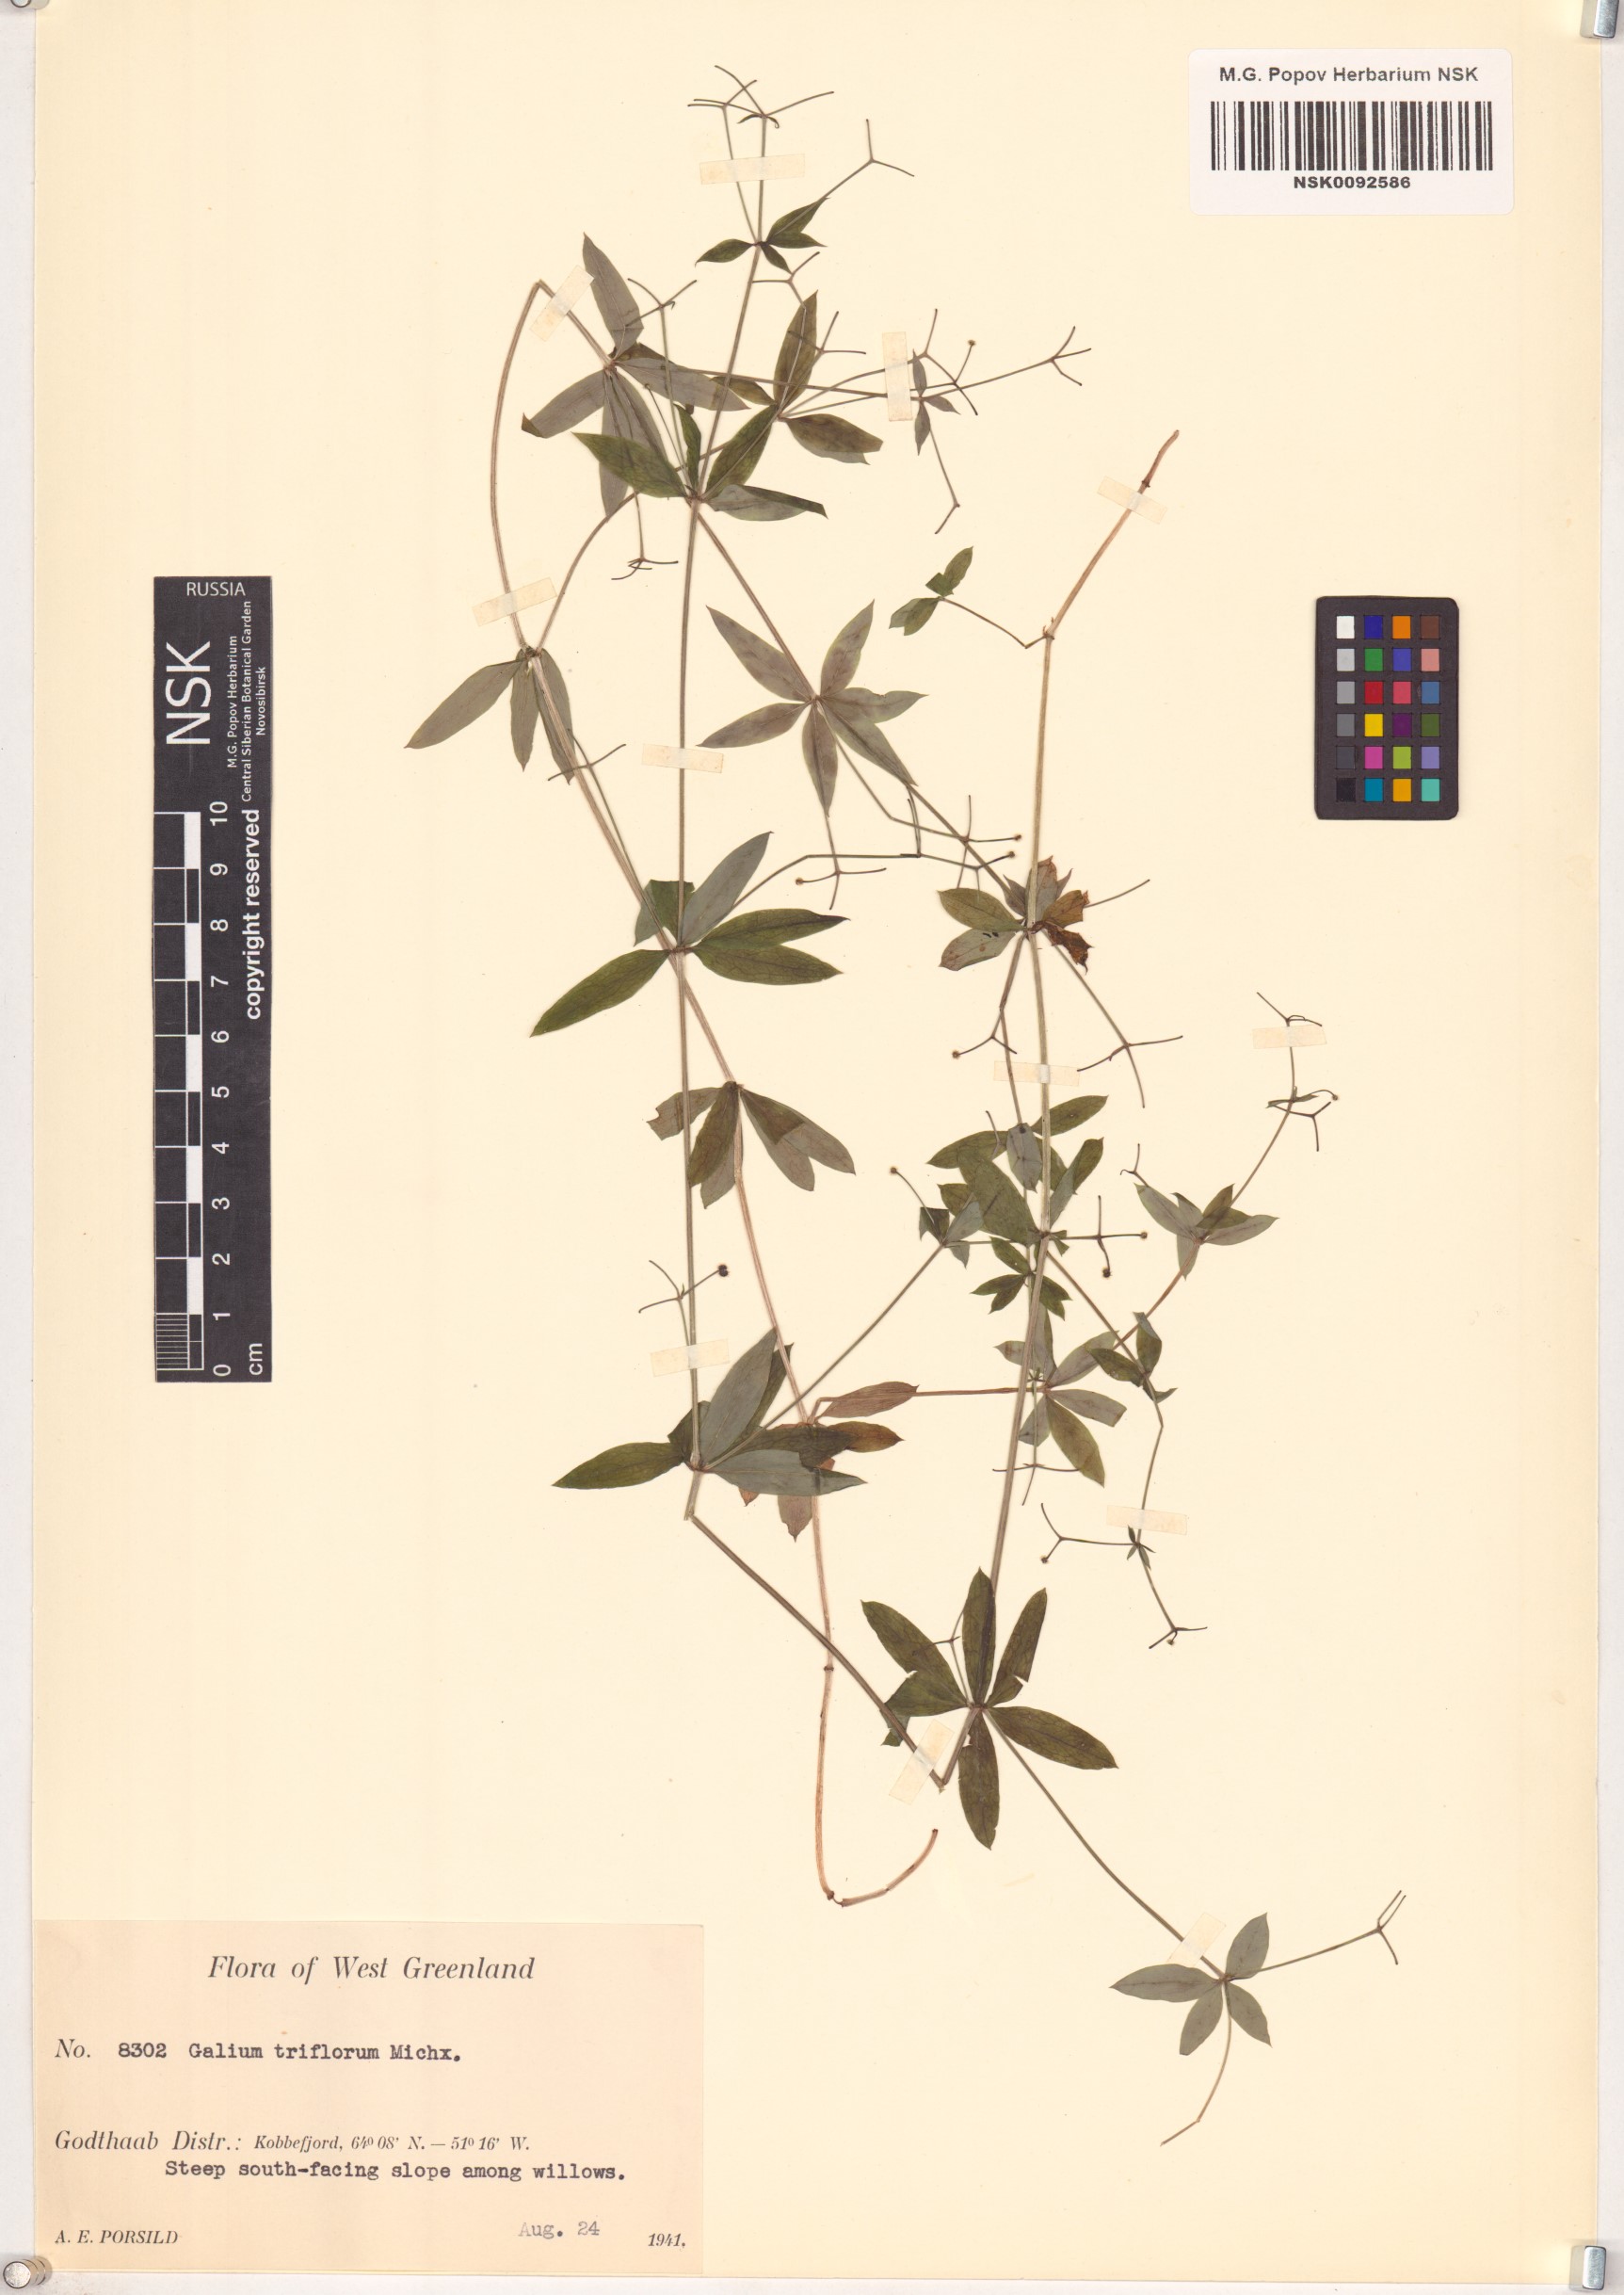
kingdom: Plantae
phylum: Tracheophyta
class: Magnoliopsida
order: Gentianales
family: Rubiaceae
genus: Galium
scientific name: Galium triflorum
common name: Fragrant bedstraw
